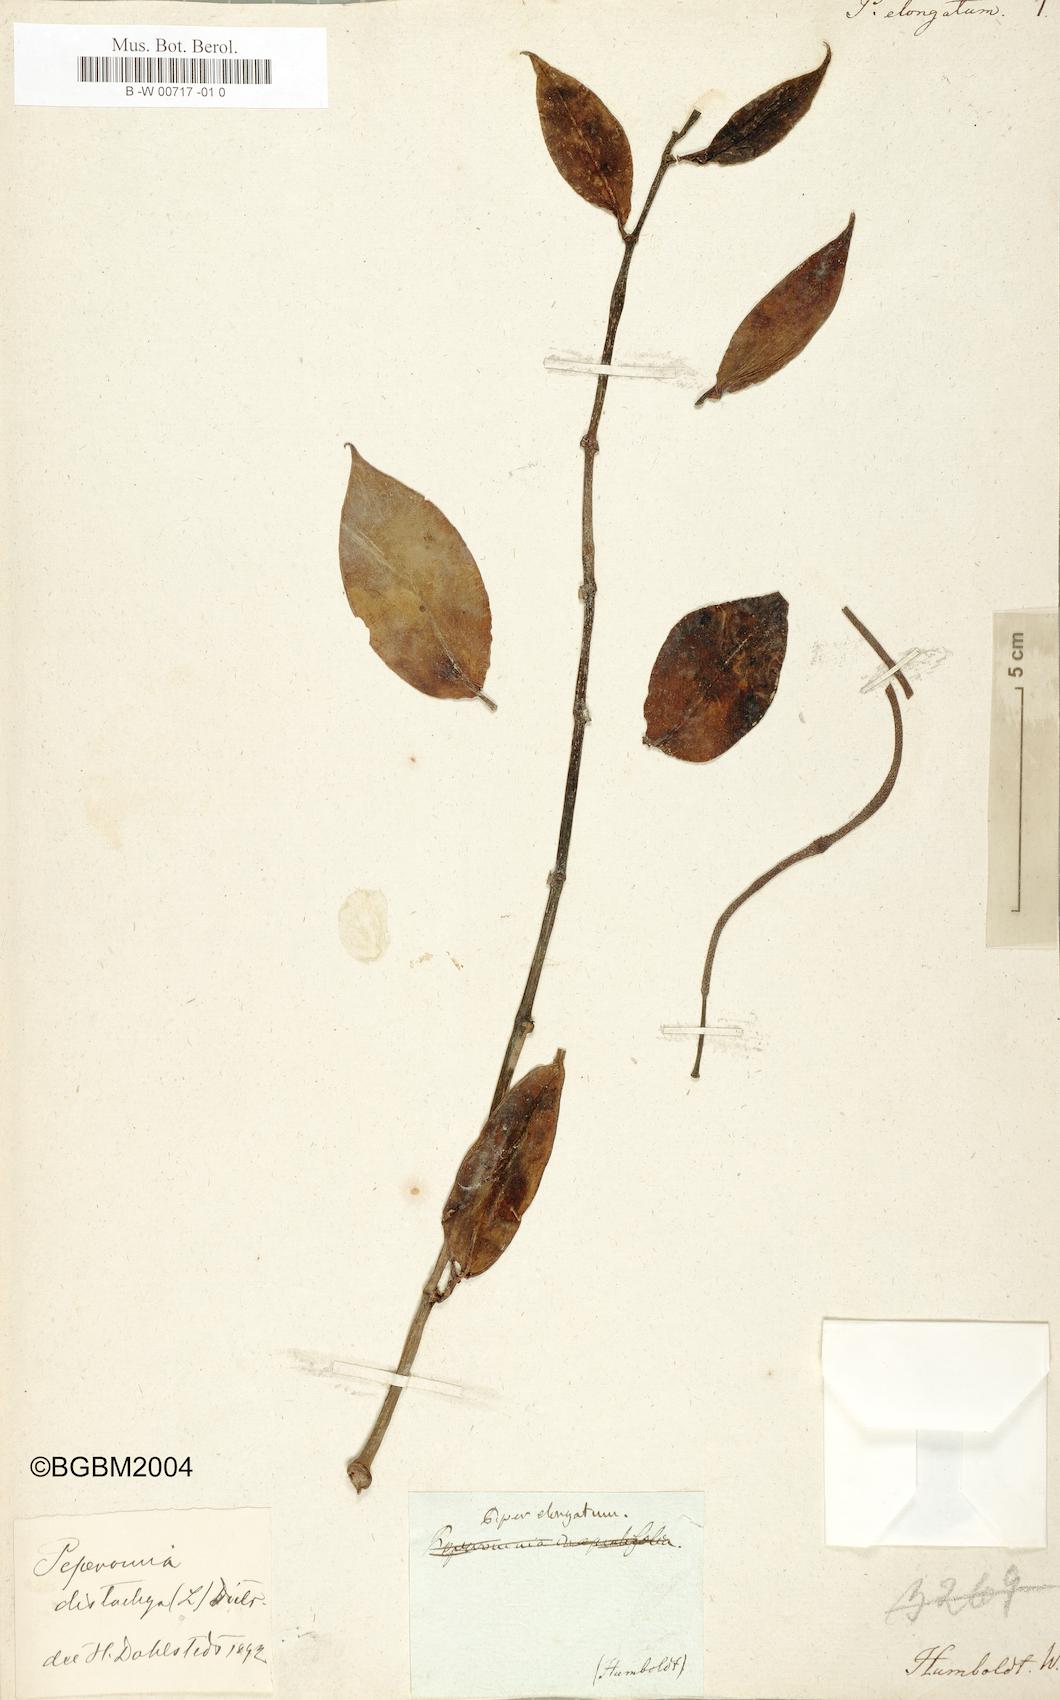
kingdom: Plantae
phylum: Tracheophyta
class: Magnoliopsida
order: Piperales
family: Piperaceae
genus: Piper
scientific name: Piper elongatum
